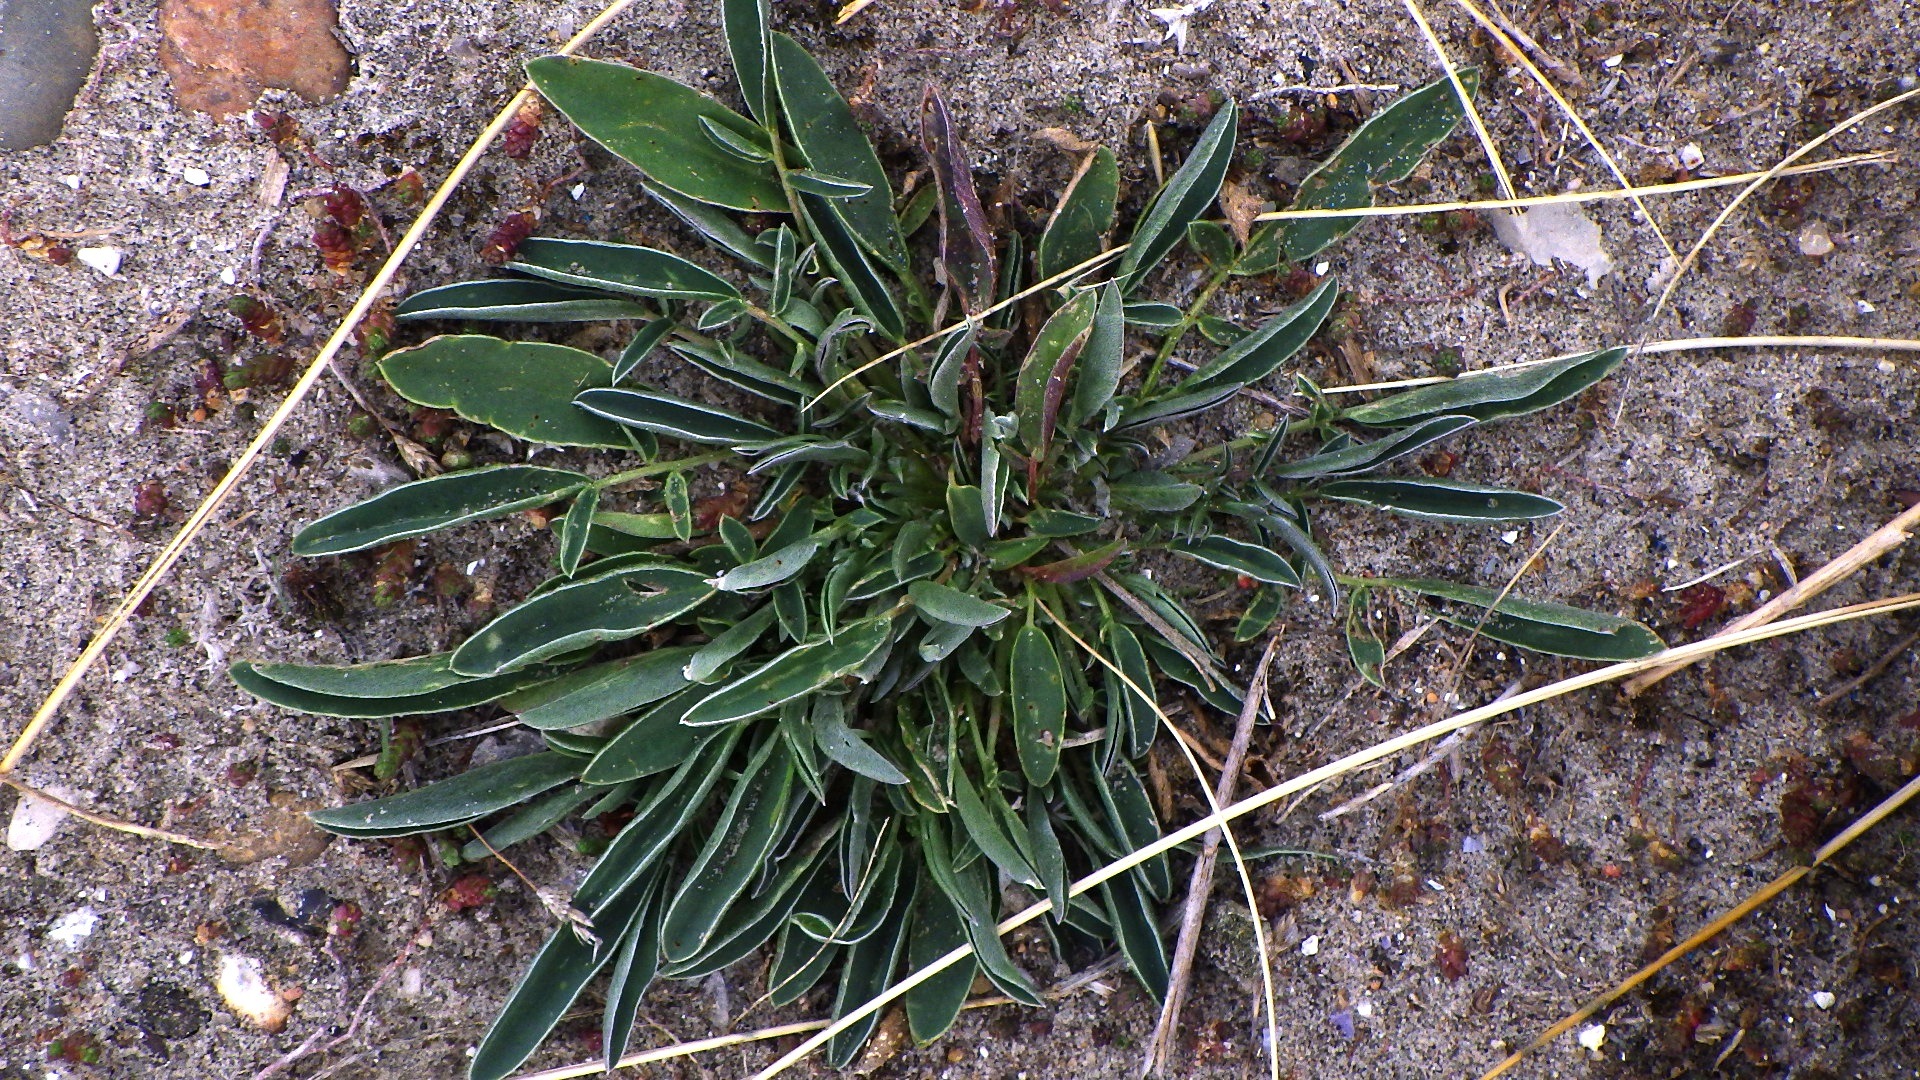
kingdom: Plantae
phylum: Tracheophyta
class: Magnoliopsida
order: Fabales
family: Fabaceae
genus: Anthyllis
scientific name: Anthyllis vulneraria
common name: Rundbælg
